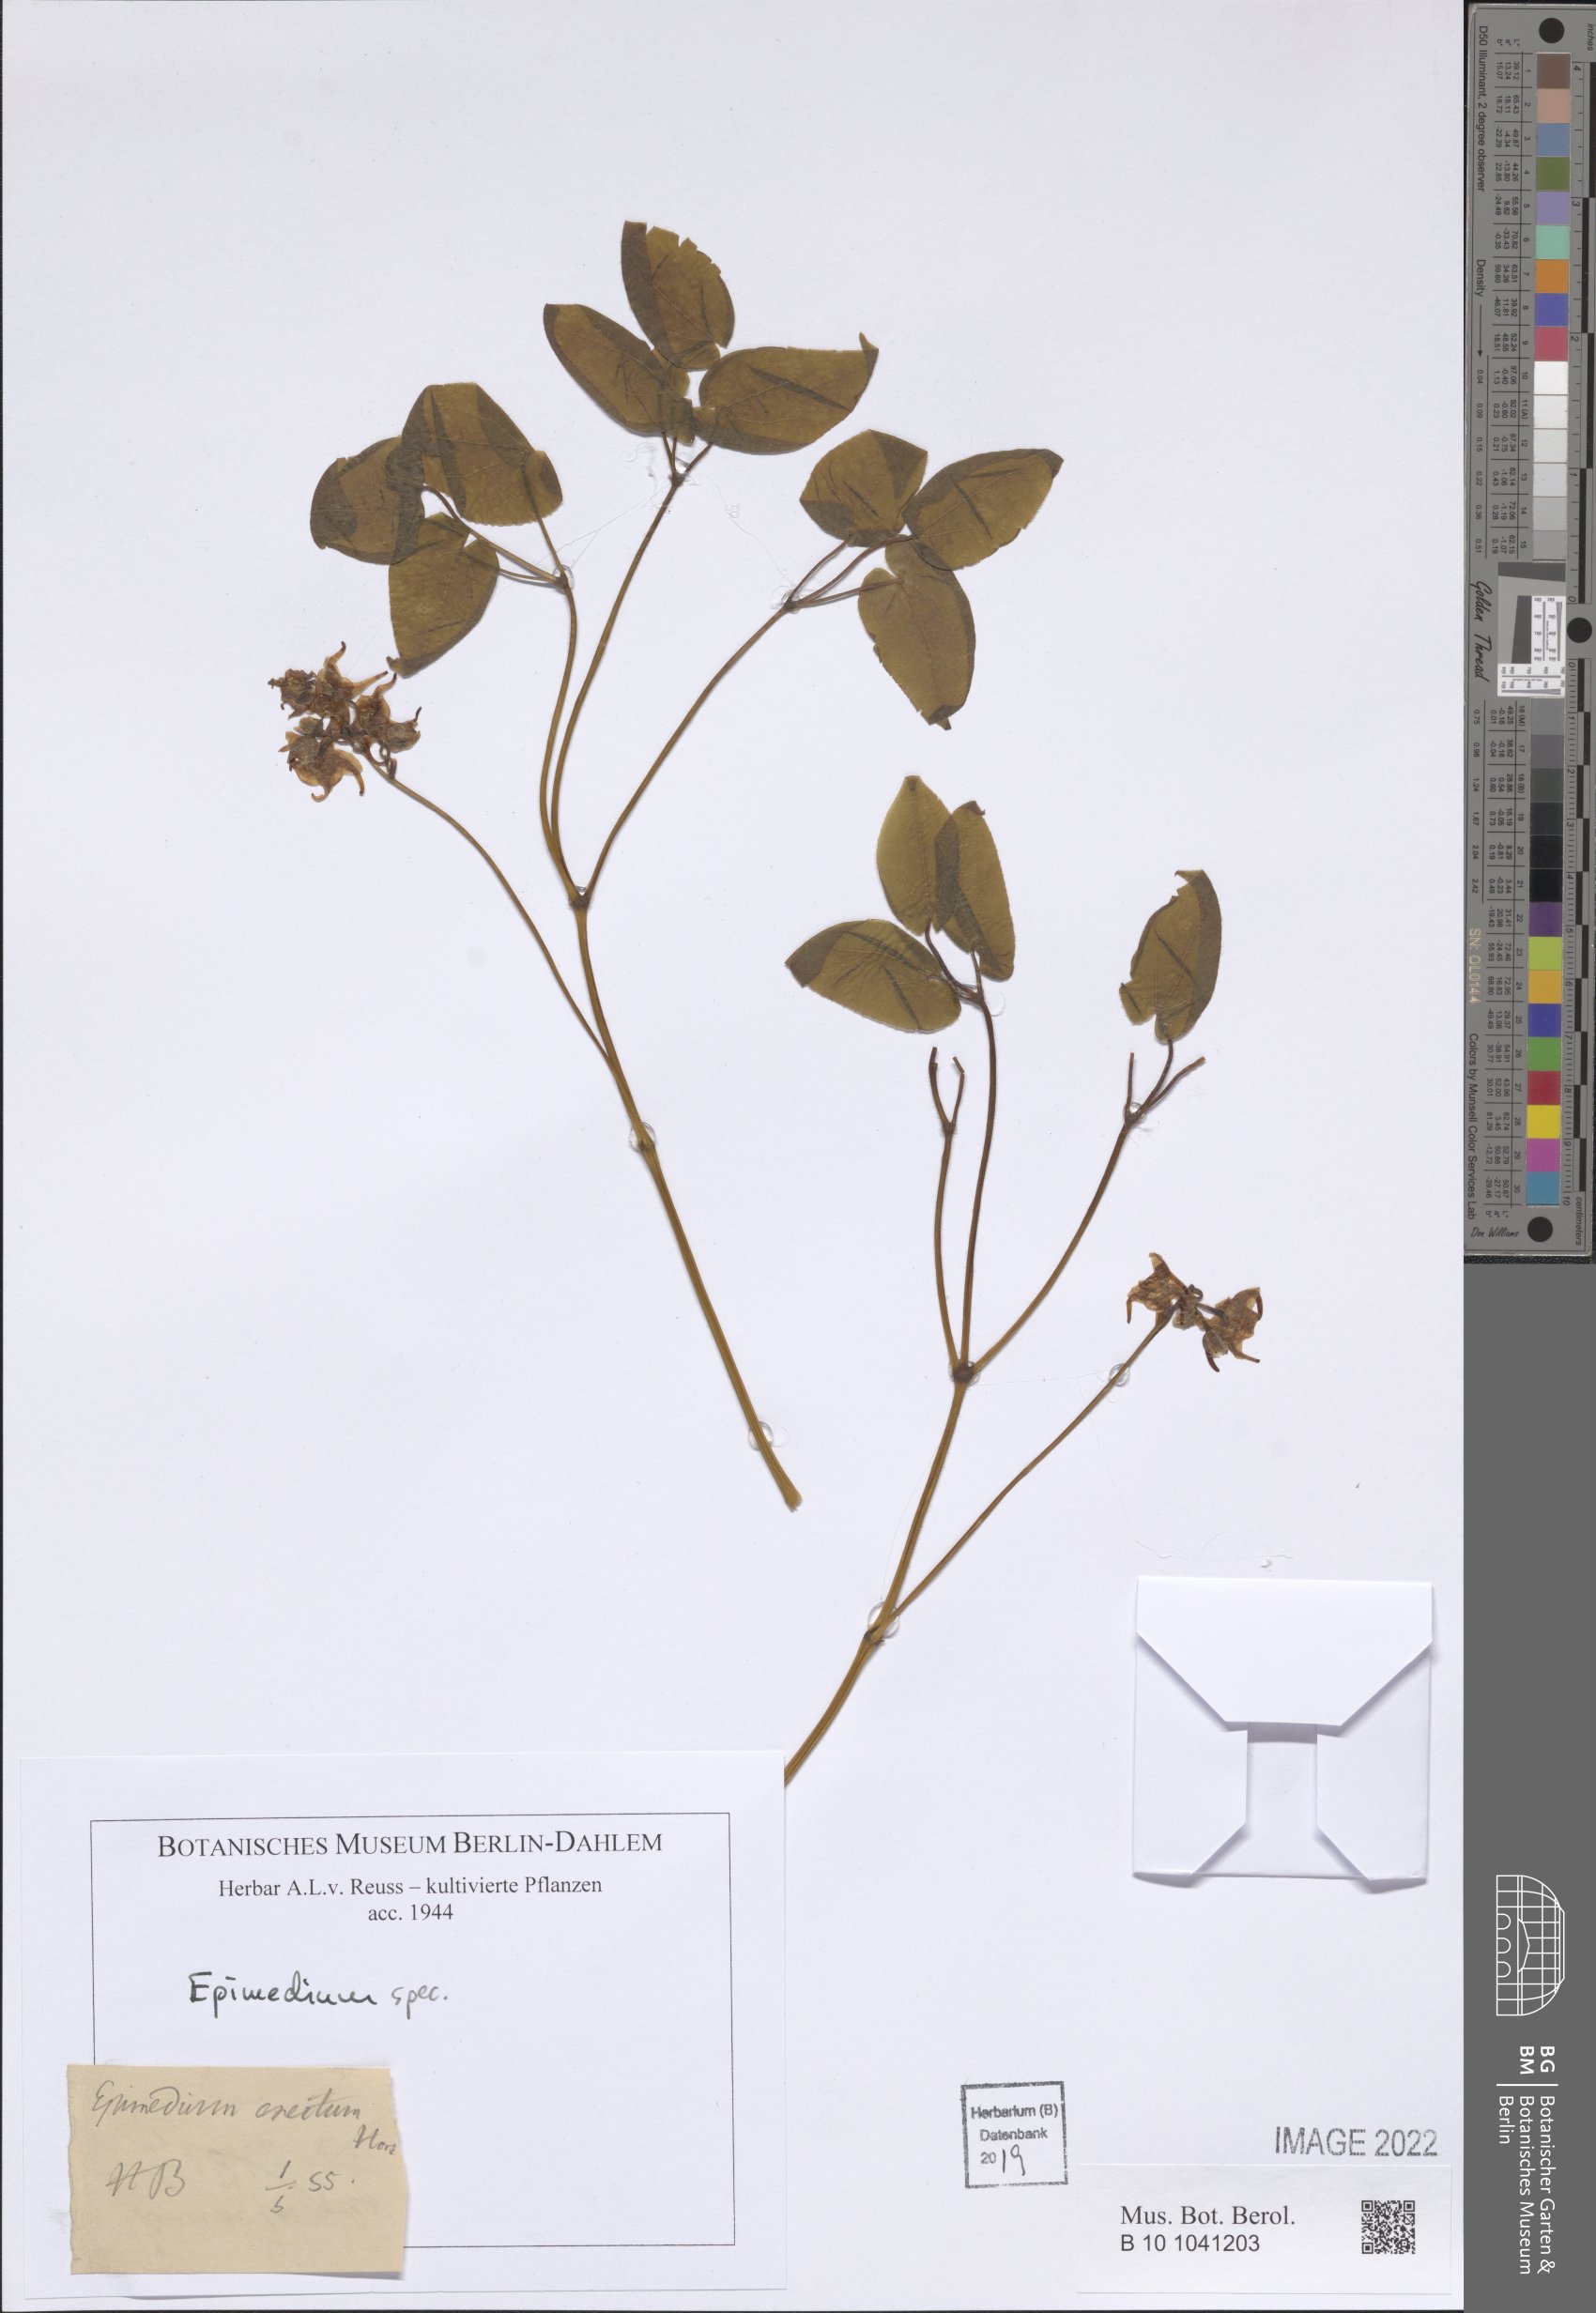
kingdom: Plantae
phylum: Tracheophyta
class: Magnoliopsida
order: Ranunculales
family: Berberidaceae
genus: Epimedium
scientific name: Epimedium
